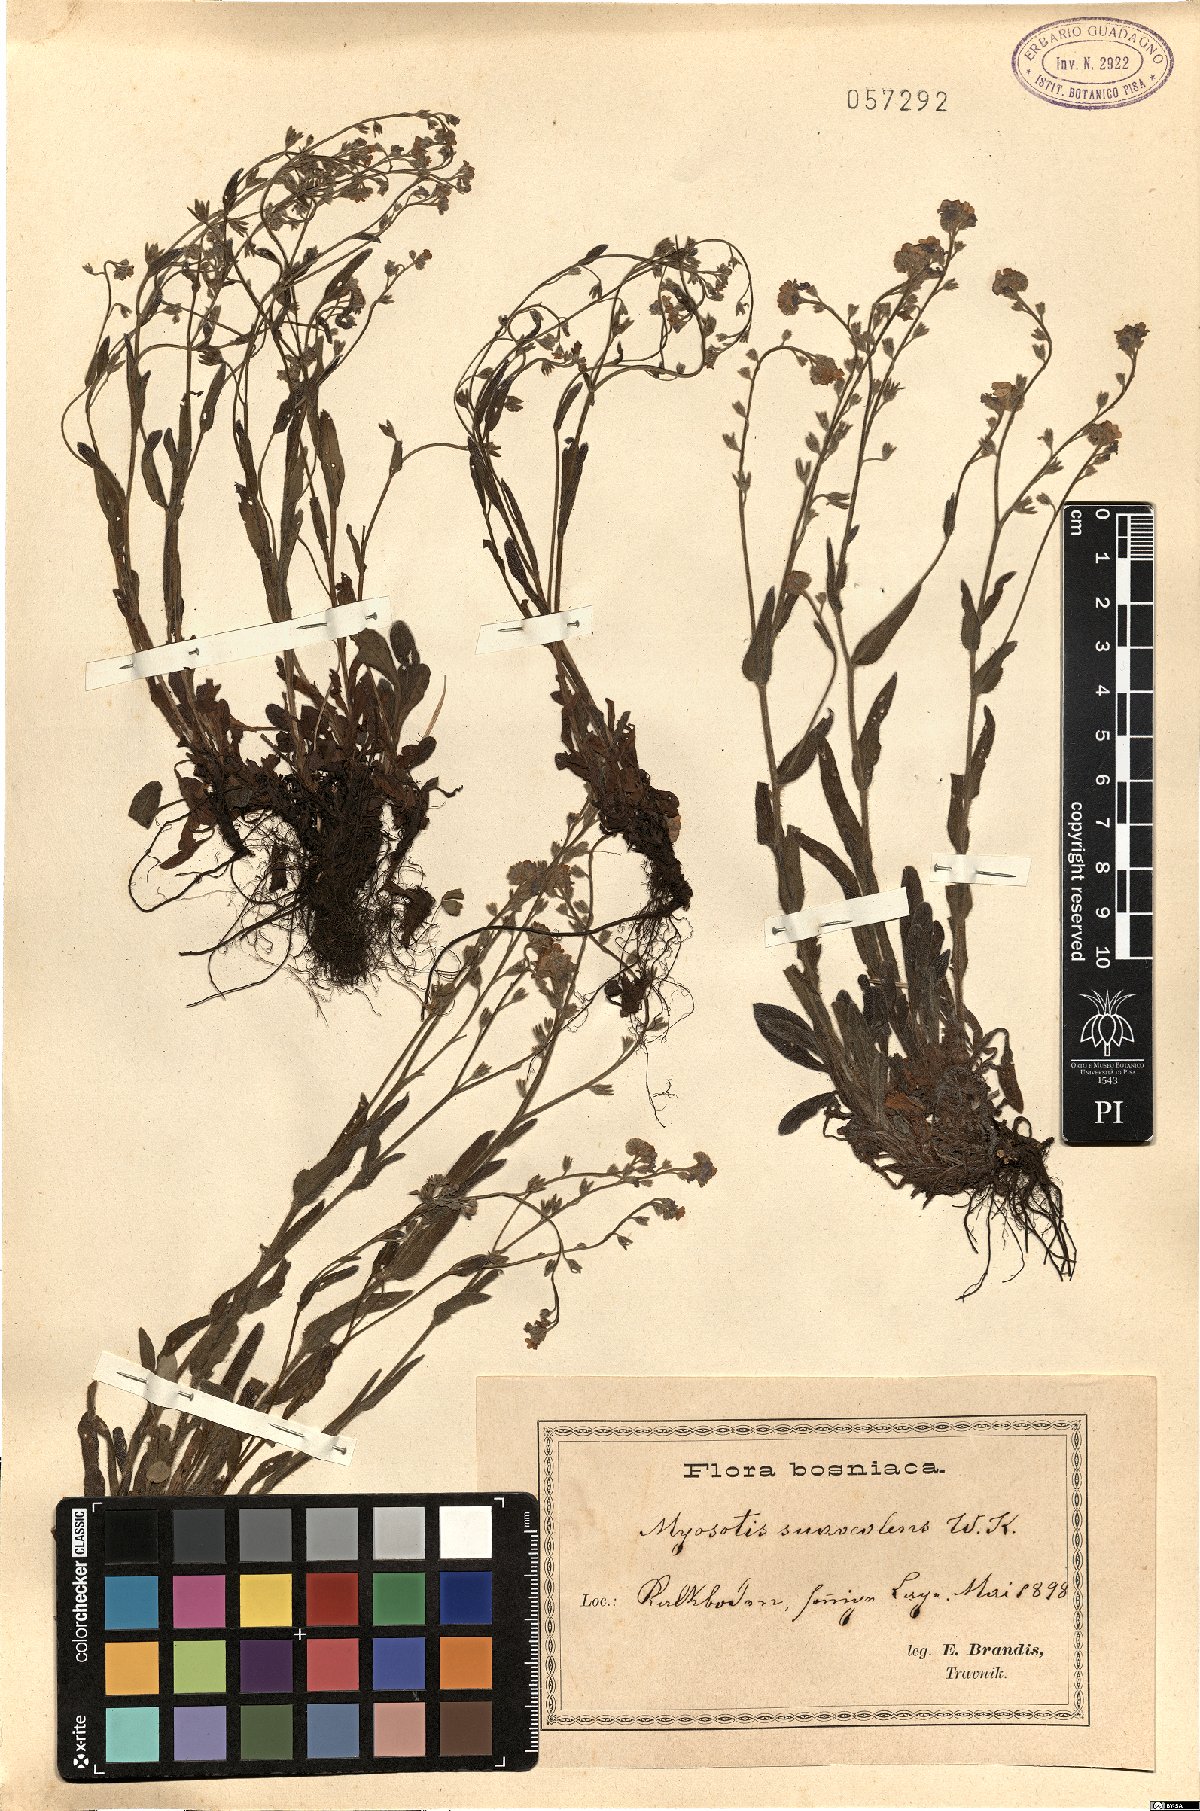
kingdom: Plantae
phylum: Tracheophyta
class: Magnoliopsida
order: Boraginales
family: Boraginaceae
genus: Myosotis
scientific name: Myosotis alpestris
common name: Alpine forget-me-not
